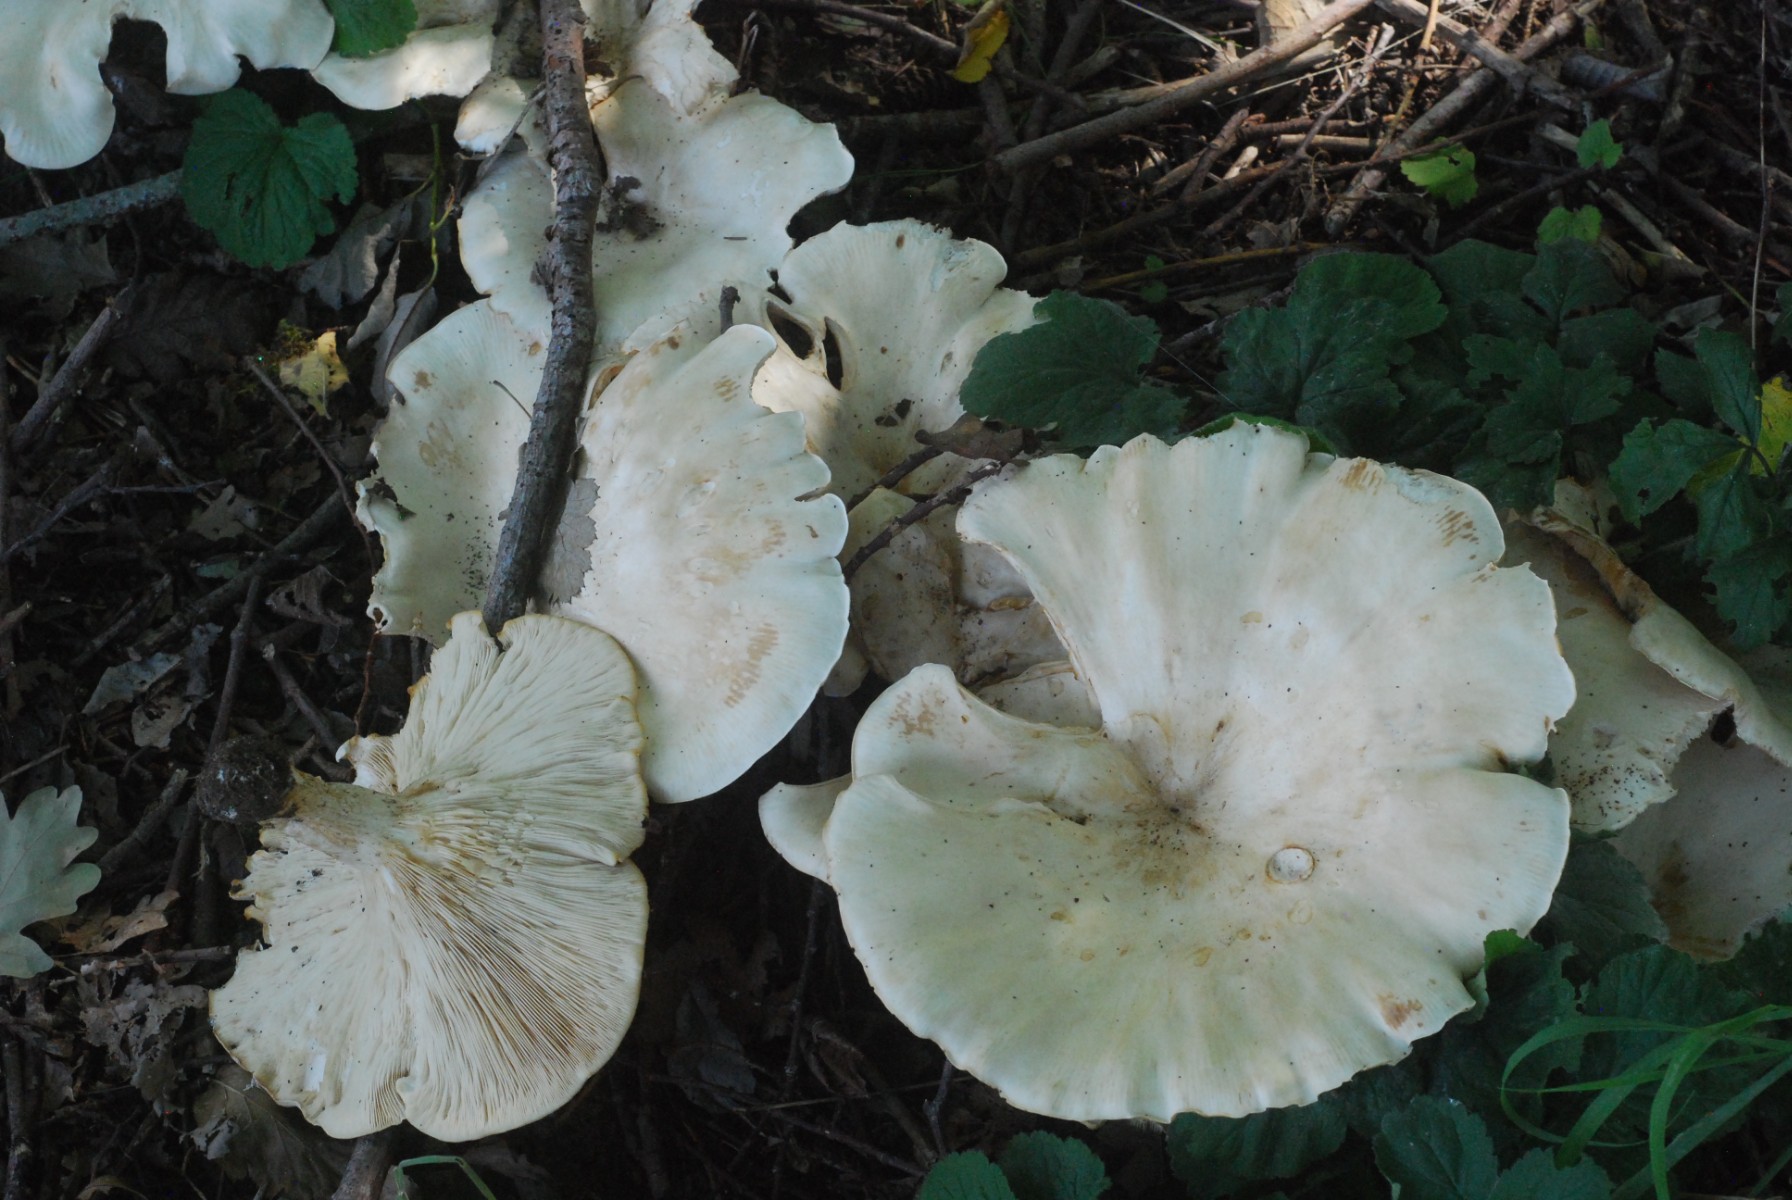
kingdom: Fungi
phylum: Basidiomycota
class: Agaricomycetes
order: Agaricales
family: Tricholomataceae
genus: Aspropaxillus
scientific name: Aspropaxillus giganteus
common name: kæmpe-tragtridderhat
